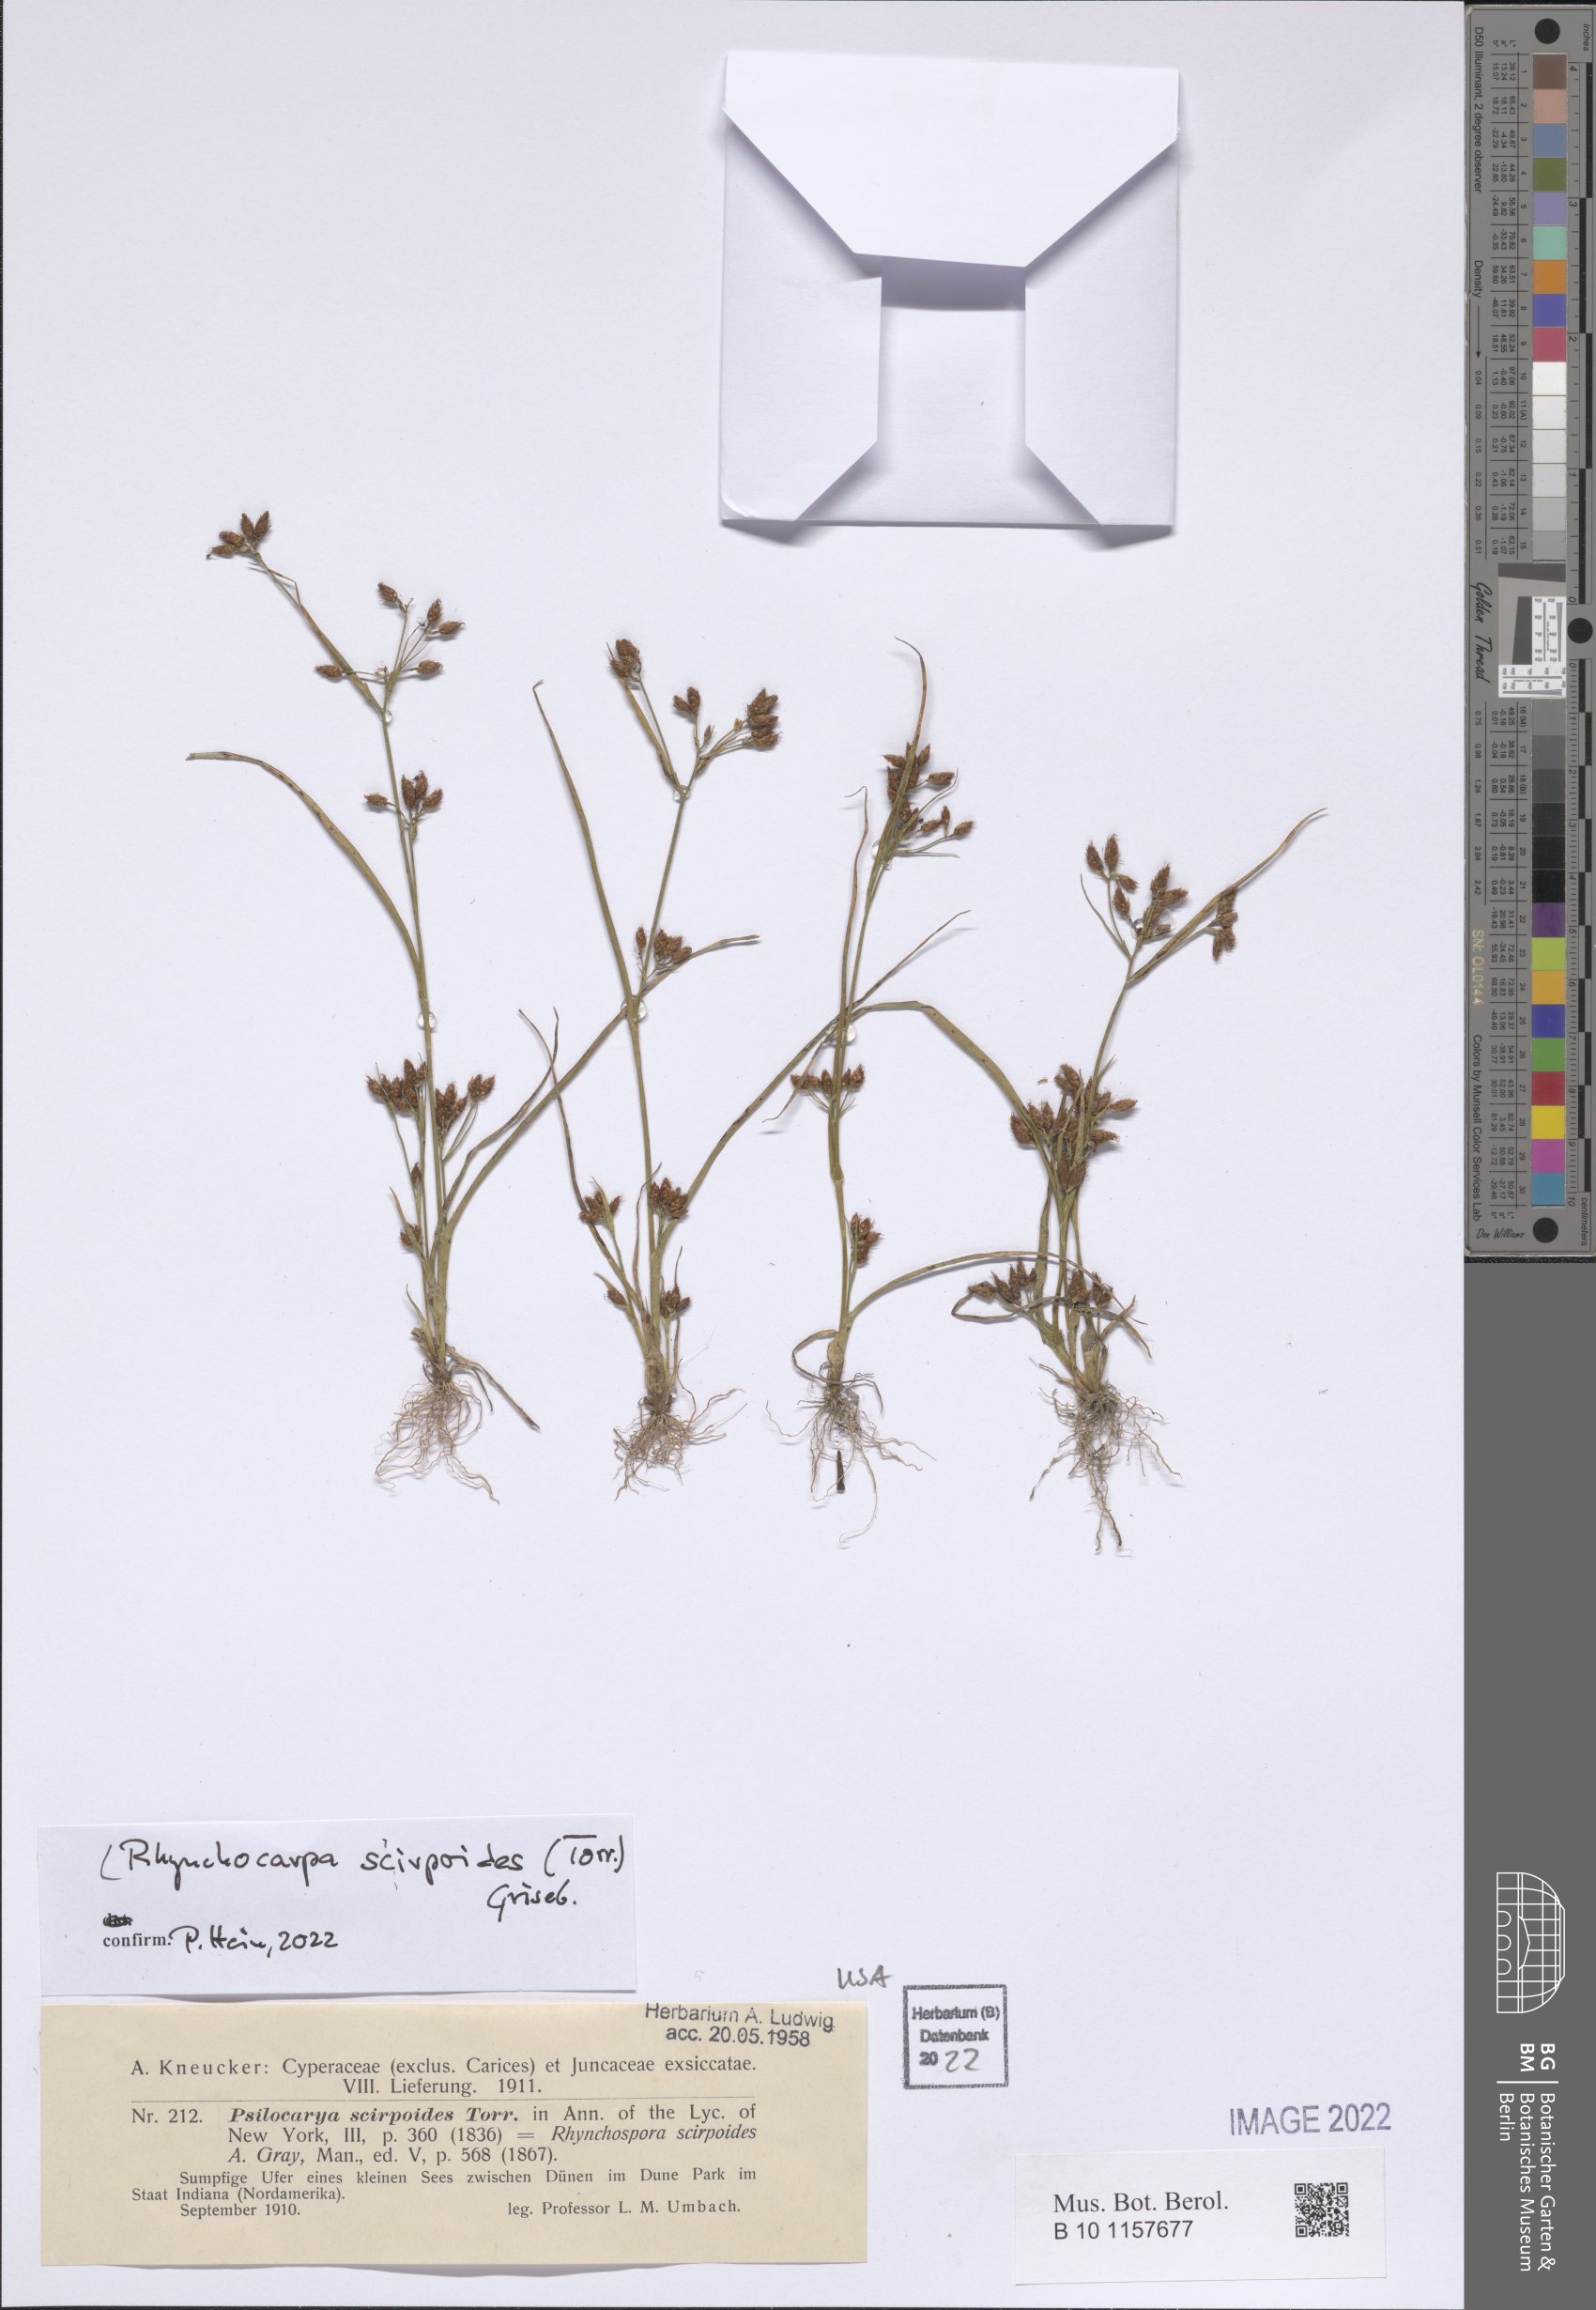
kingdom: Plantae
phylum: Tracheophyta
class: Liliopsida
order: Poales
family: Cyperaceae
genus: Rhynchospora
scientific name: Rhynchospora scirpoides
